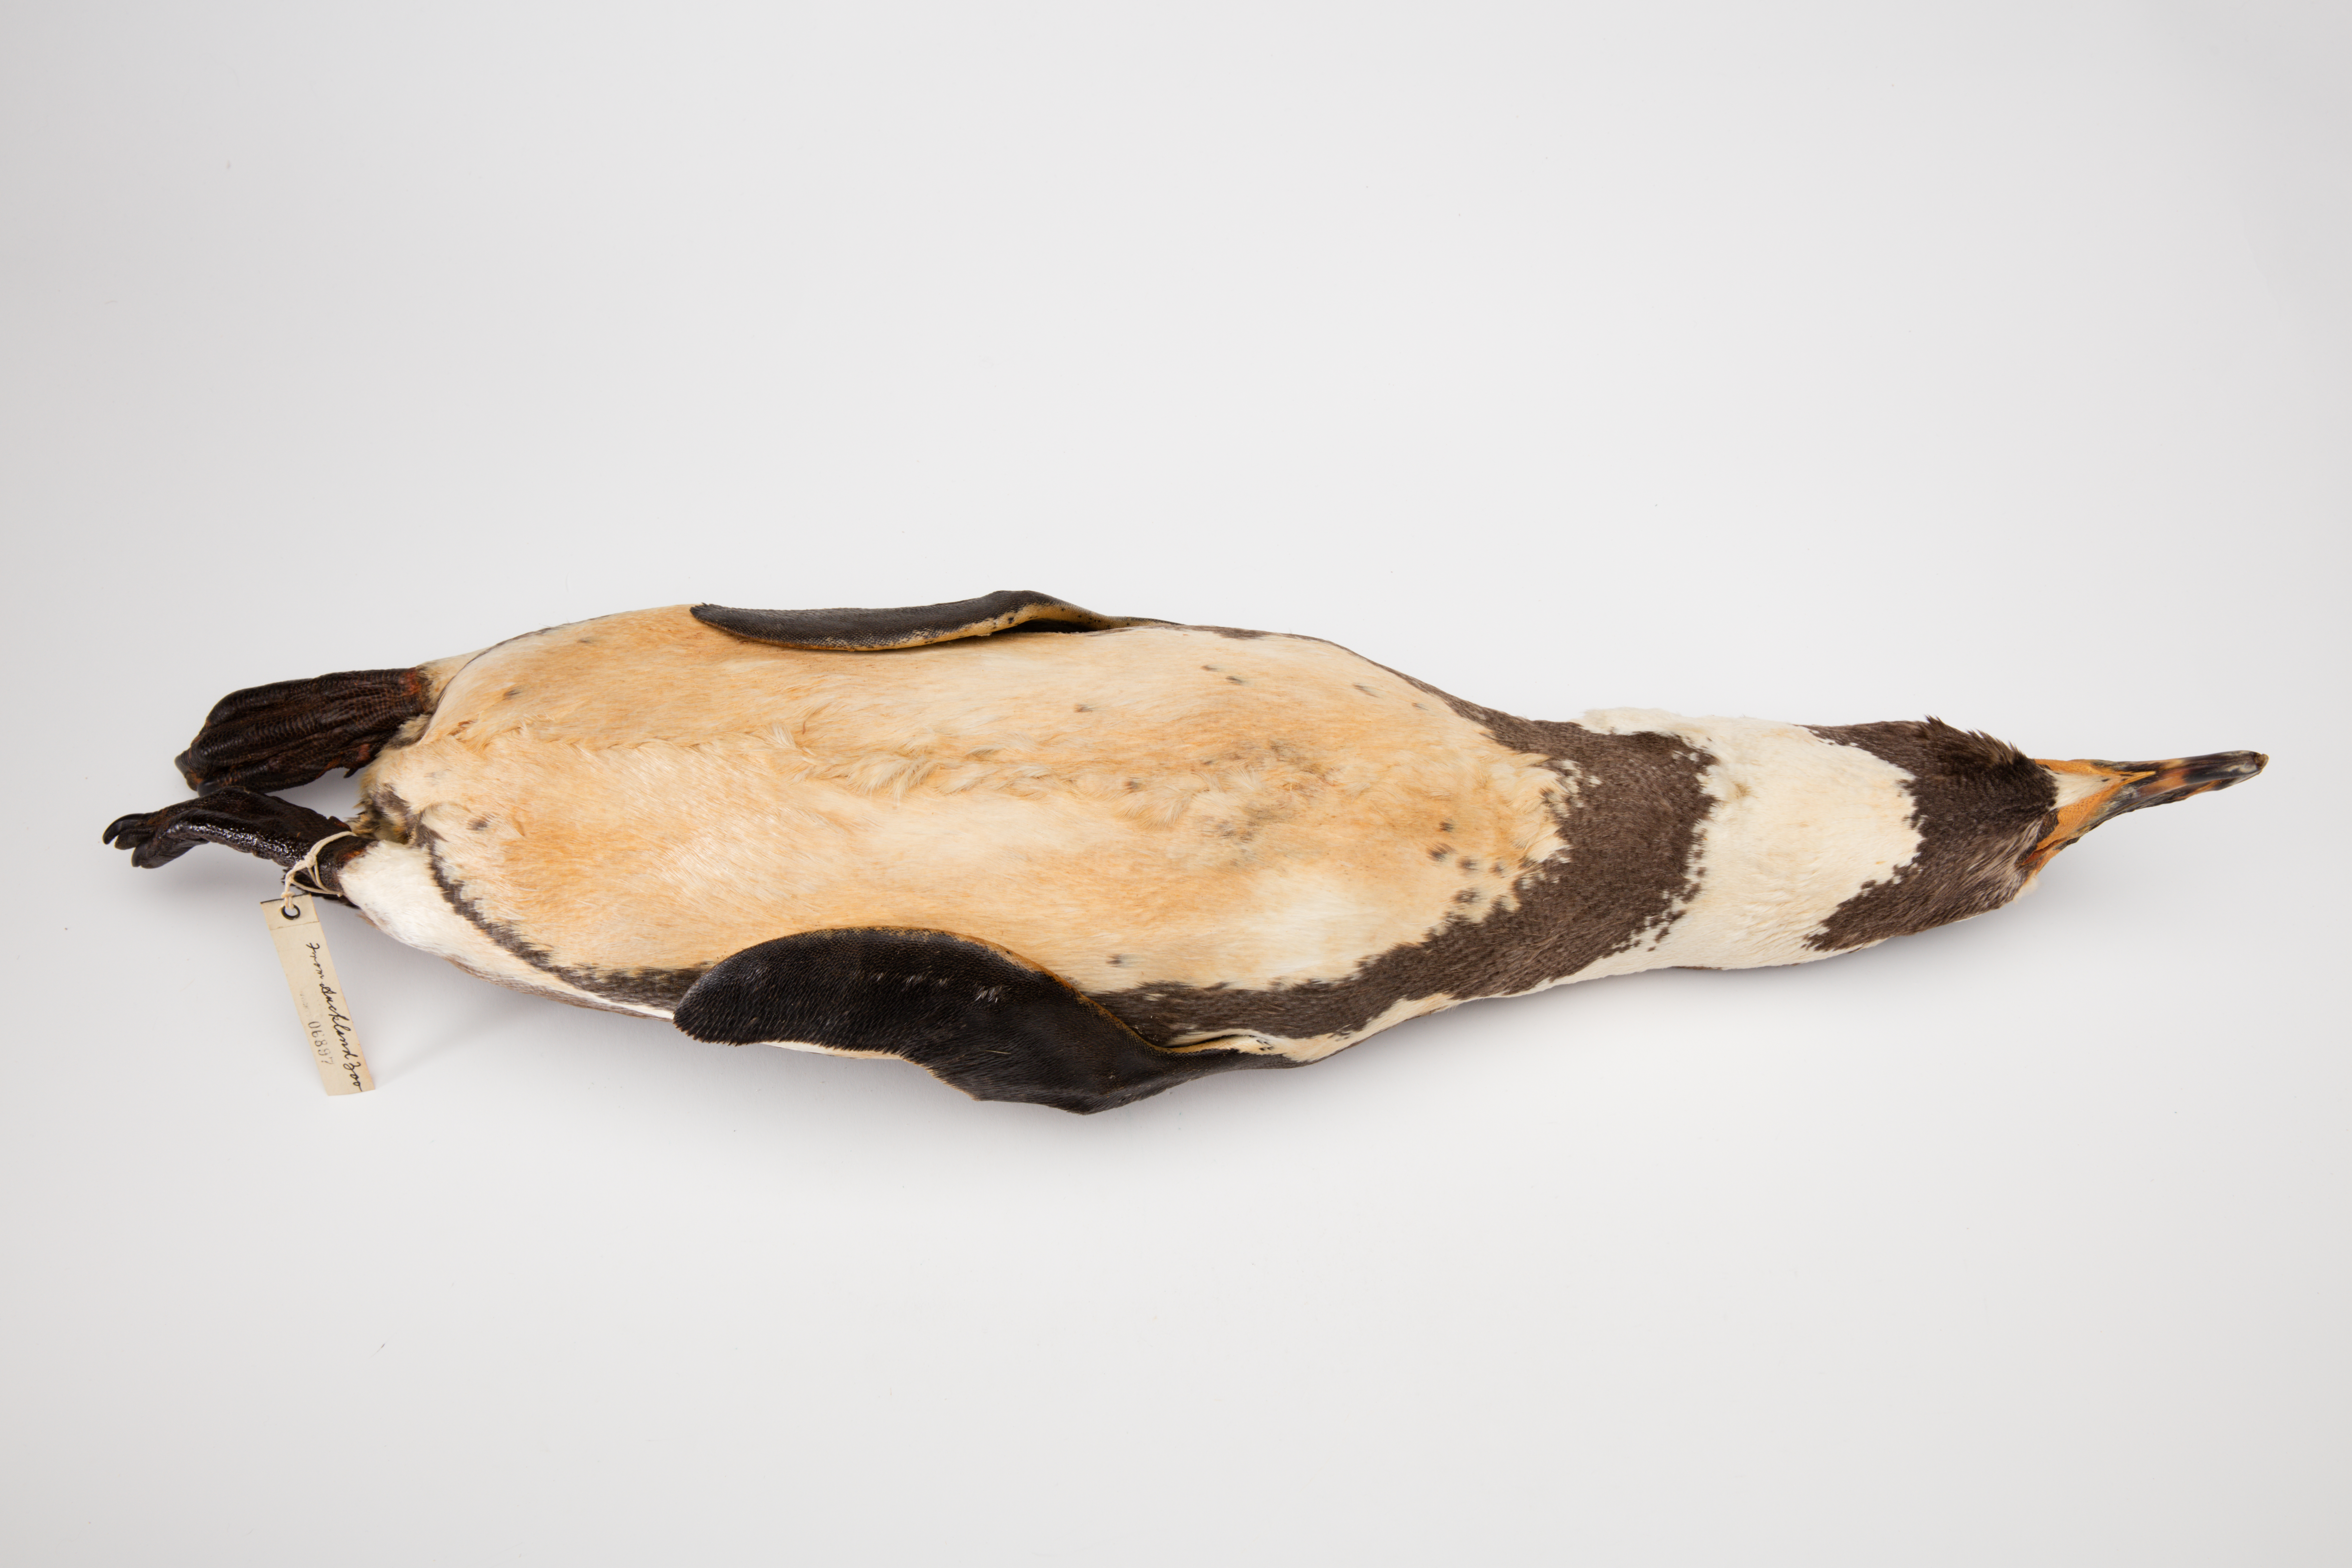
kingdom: Animalia
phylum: Chordata
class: Aves
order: Sphenisciformes
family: Spheniscidae
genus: Spheniscus
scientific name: Spheniscus demersus
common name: African penguin
